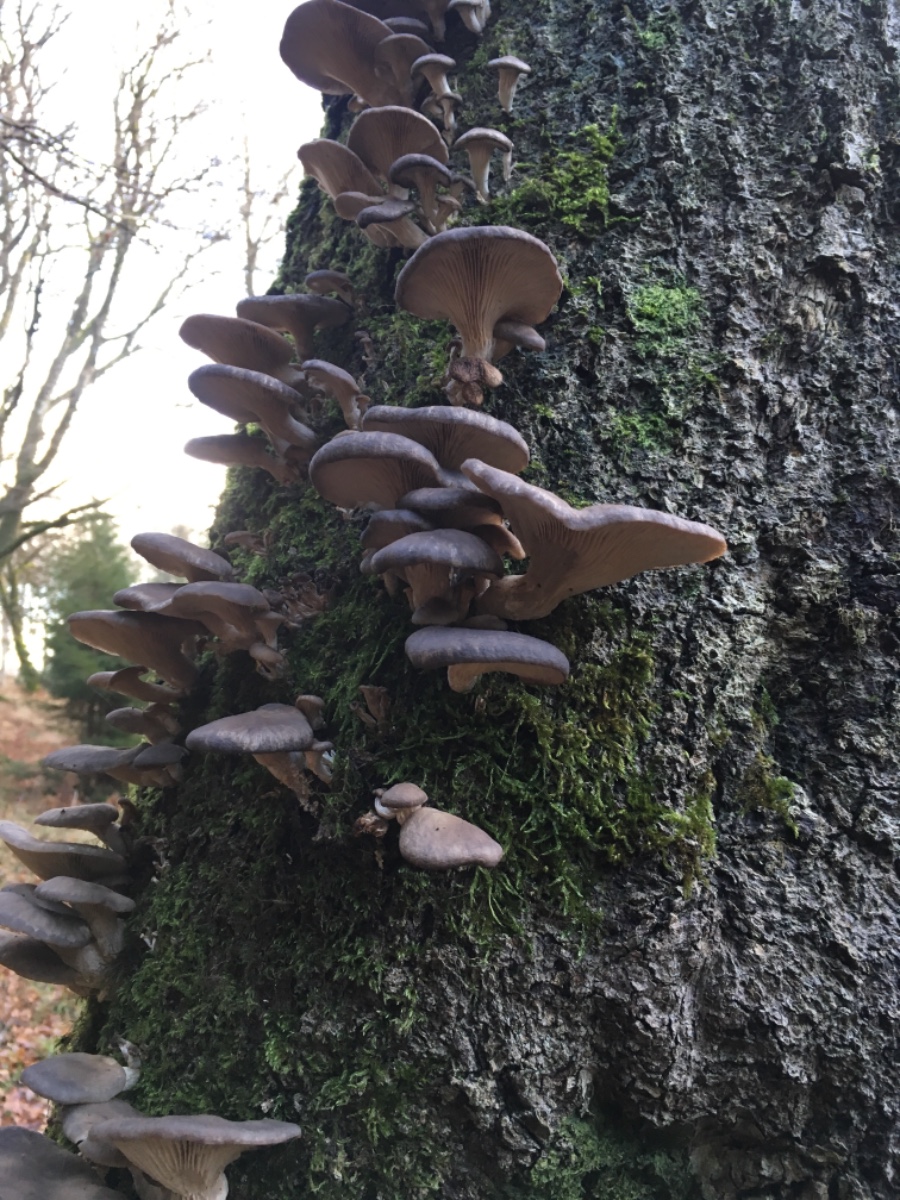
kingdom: Fungi
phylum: Basidiomycota
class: Agaricomycetes
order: Agaricales
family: Pleurotaceae
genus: Pleurotus
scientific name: Pleurotus ostreatus
